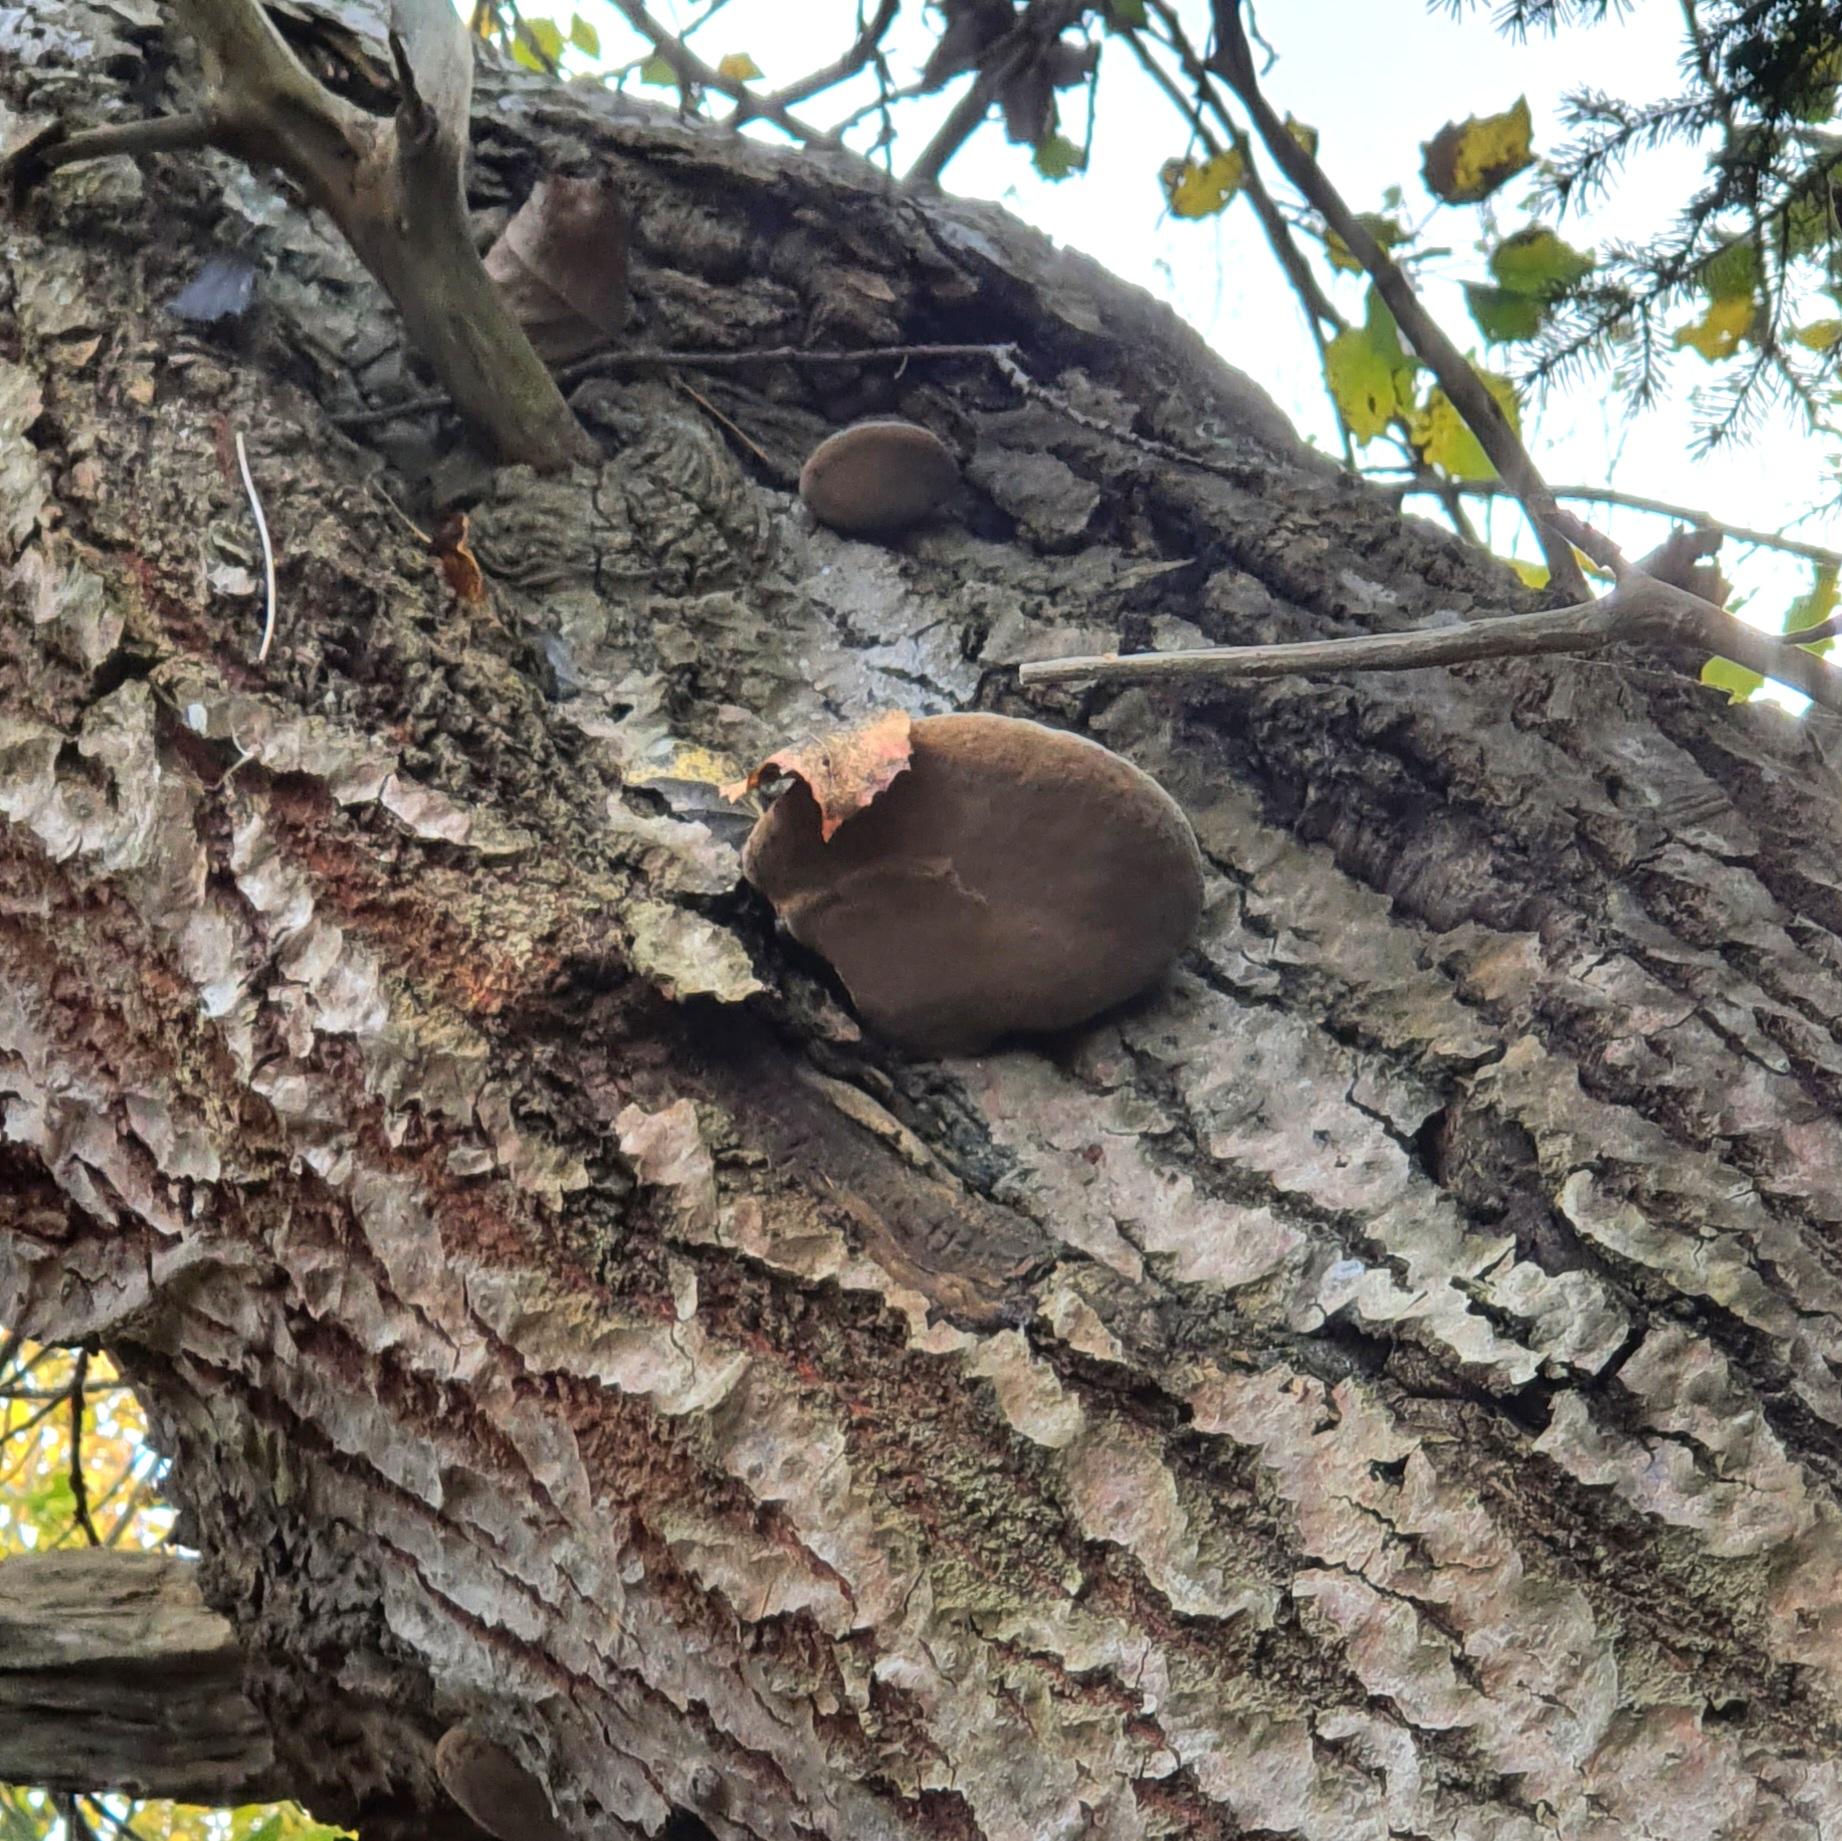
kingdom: Fungi
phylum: Basidiomycota
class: Agaricomycetes
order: Hymenochaetales
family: Hymenochaetaceae
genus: Phellinus
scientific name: Phellinus populicola
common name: poppel-ildporesvamp
